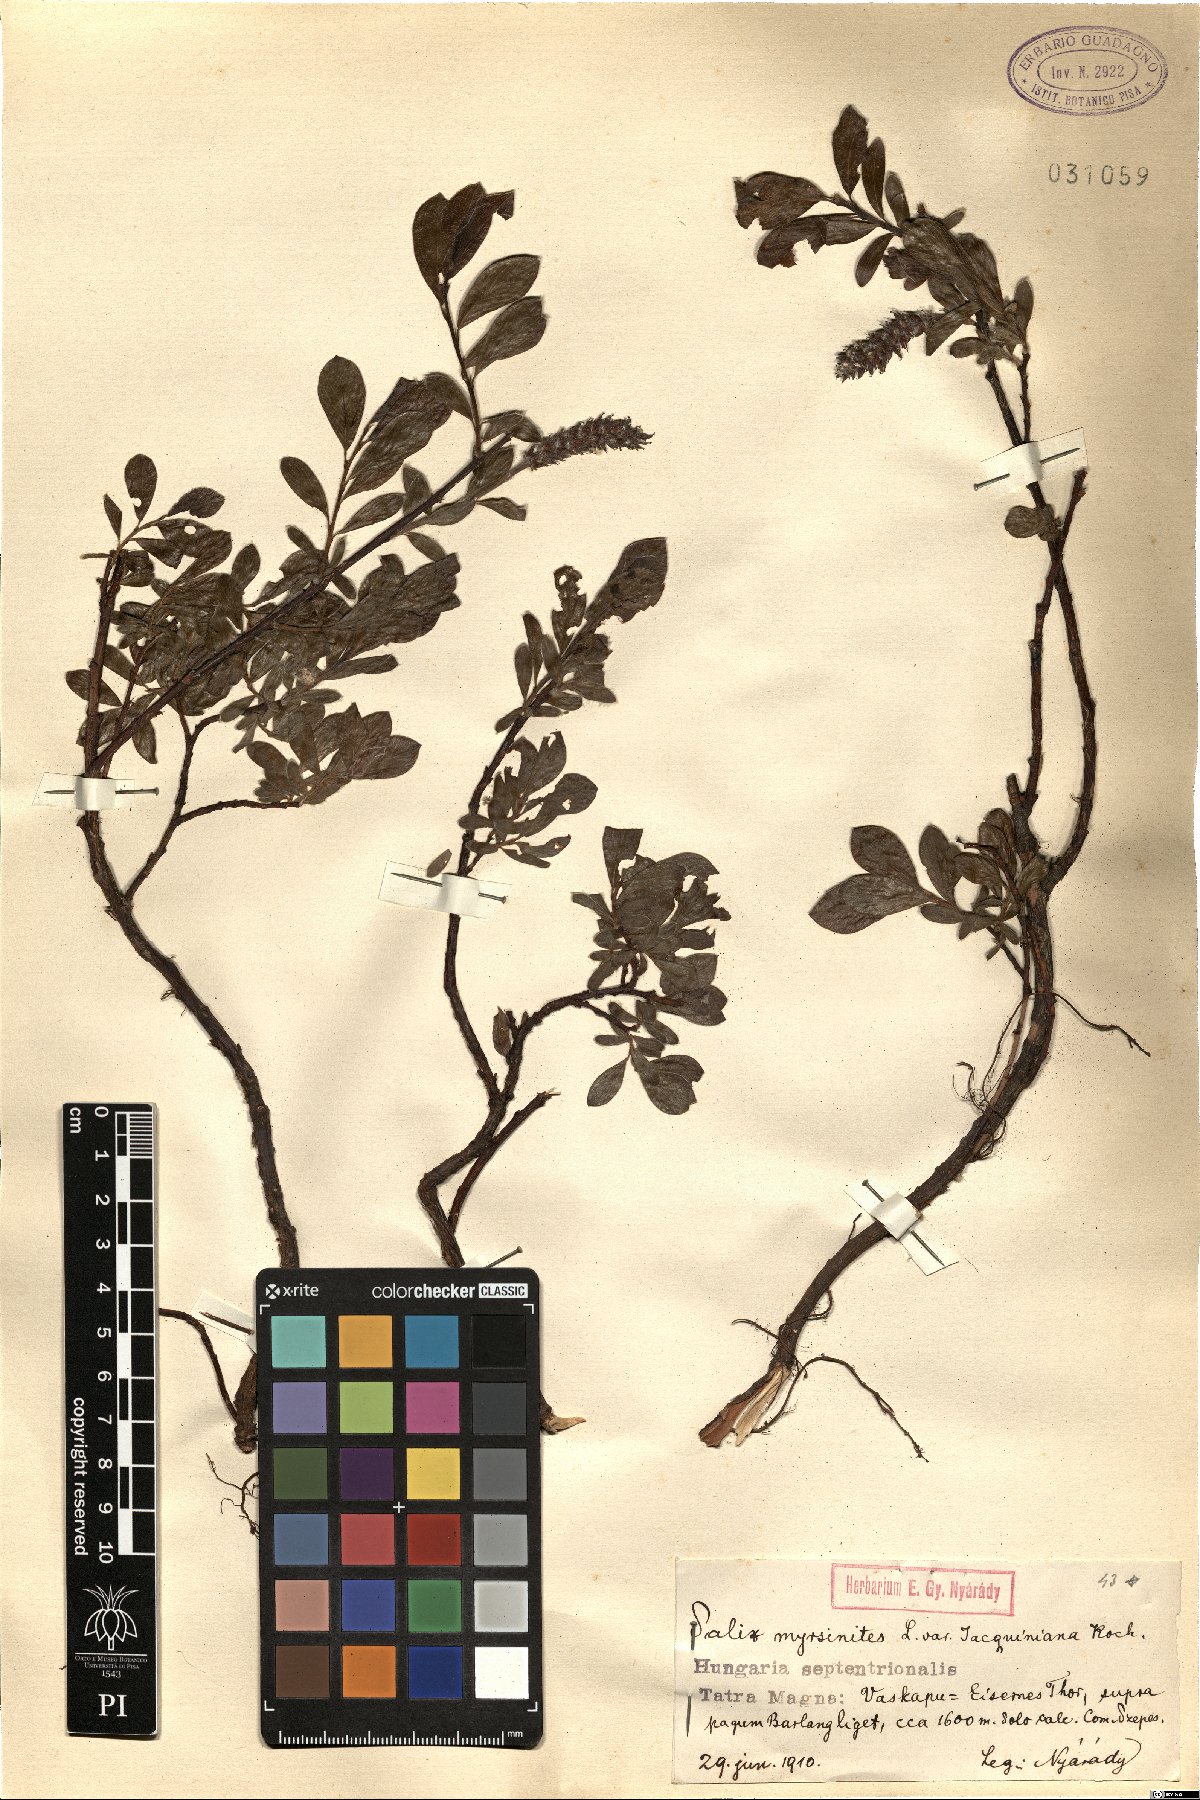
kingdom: Plantae
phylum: Tracheophyta
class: Magnoliopsida
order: Malpighiales
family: Salicaceae
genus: Salix
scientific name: Salix myrsinites
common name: Myrtle willow
